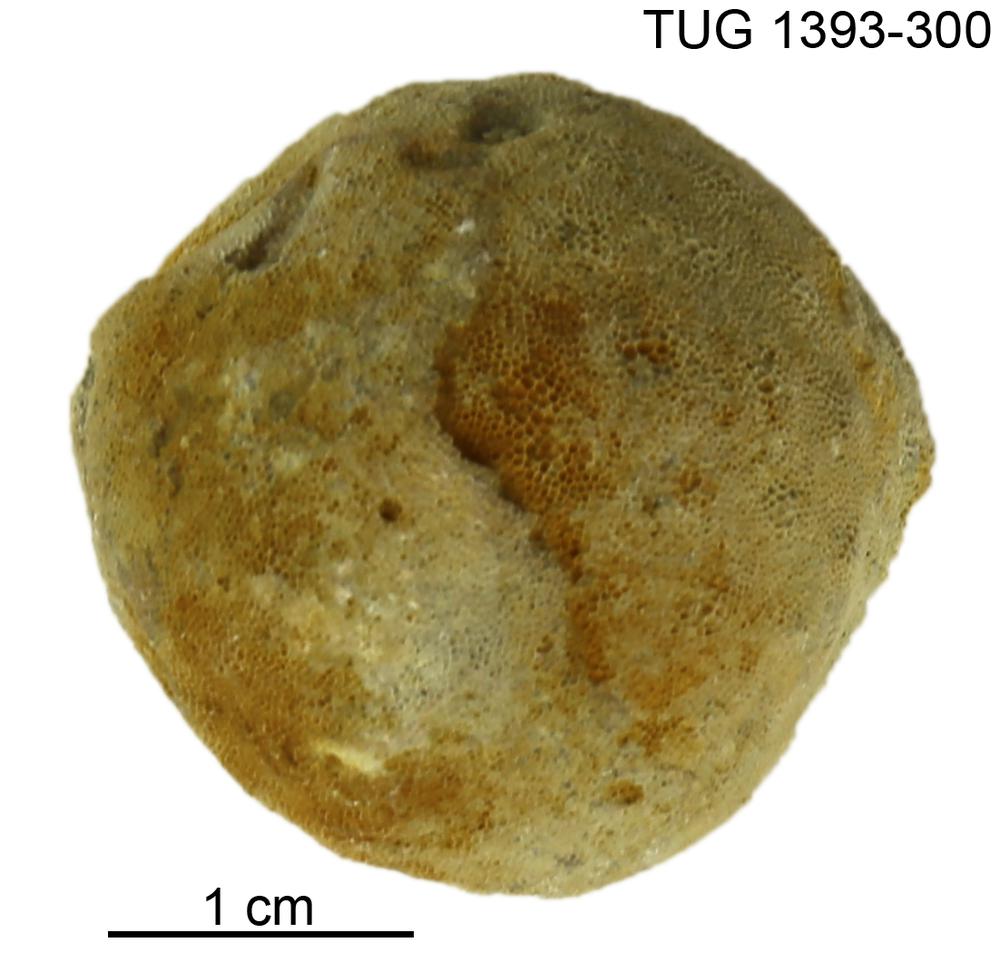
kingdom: Animalia
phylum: Bryozoa
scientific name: Bryozoa
